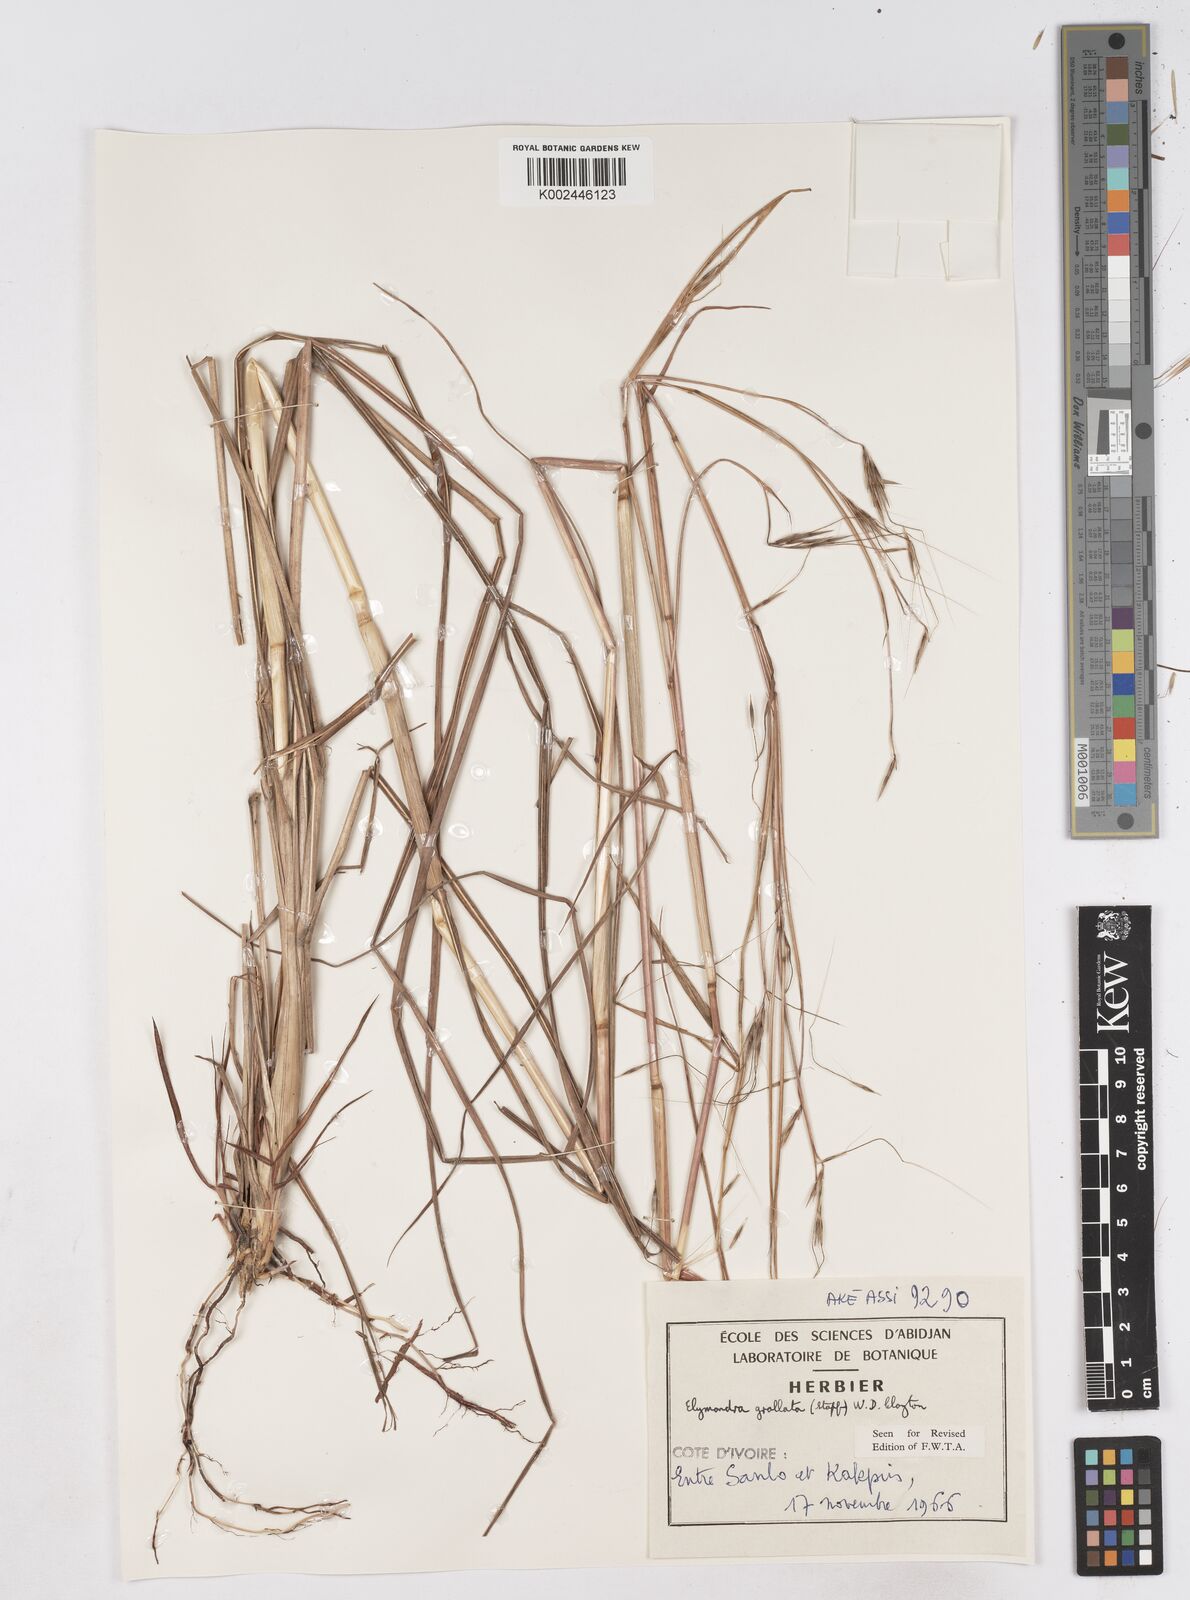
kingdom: Plantae
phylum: Tracheophyta
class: Liliopsida
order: Poales
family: Poaceae
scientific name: Poaceae
